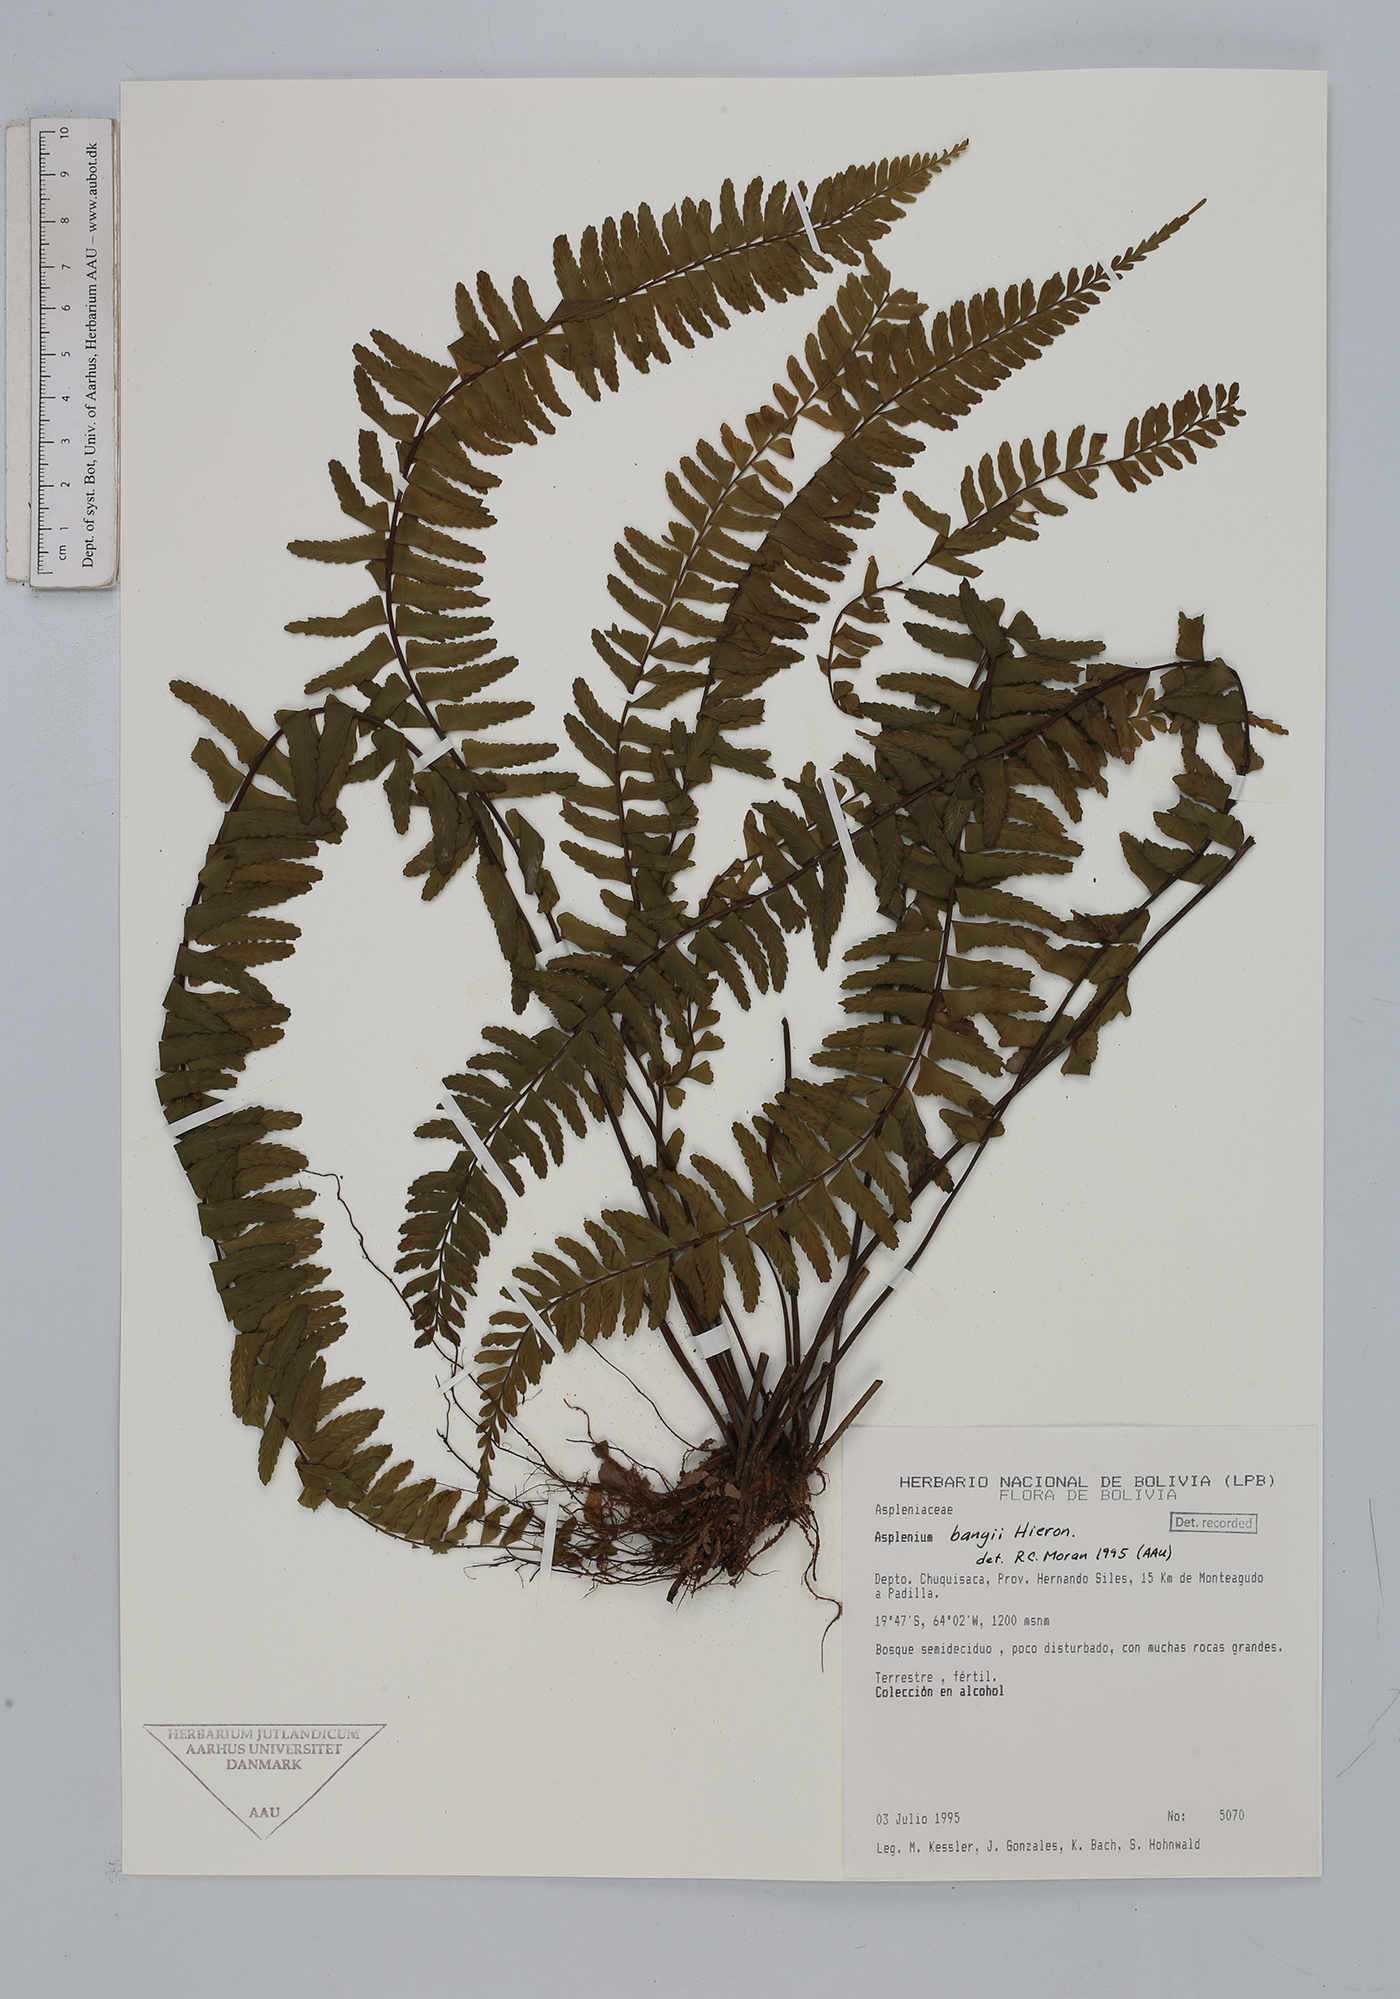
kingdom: Plantae
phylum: Tracheophyta
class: Polypodiopsida
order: Polypodiales
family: Aspleniaceae
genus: Asplenium
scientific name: Asplenium bangii
